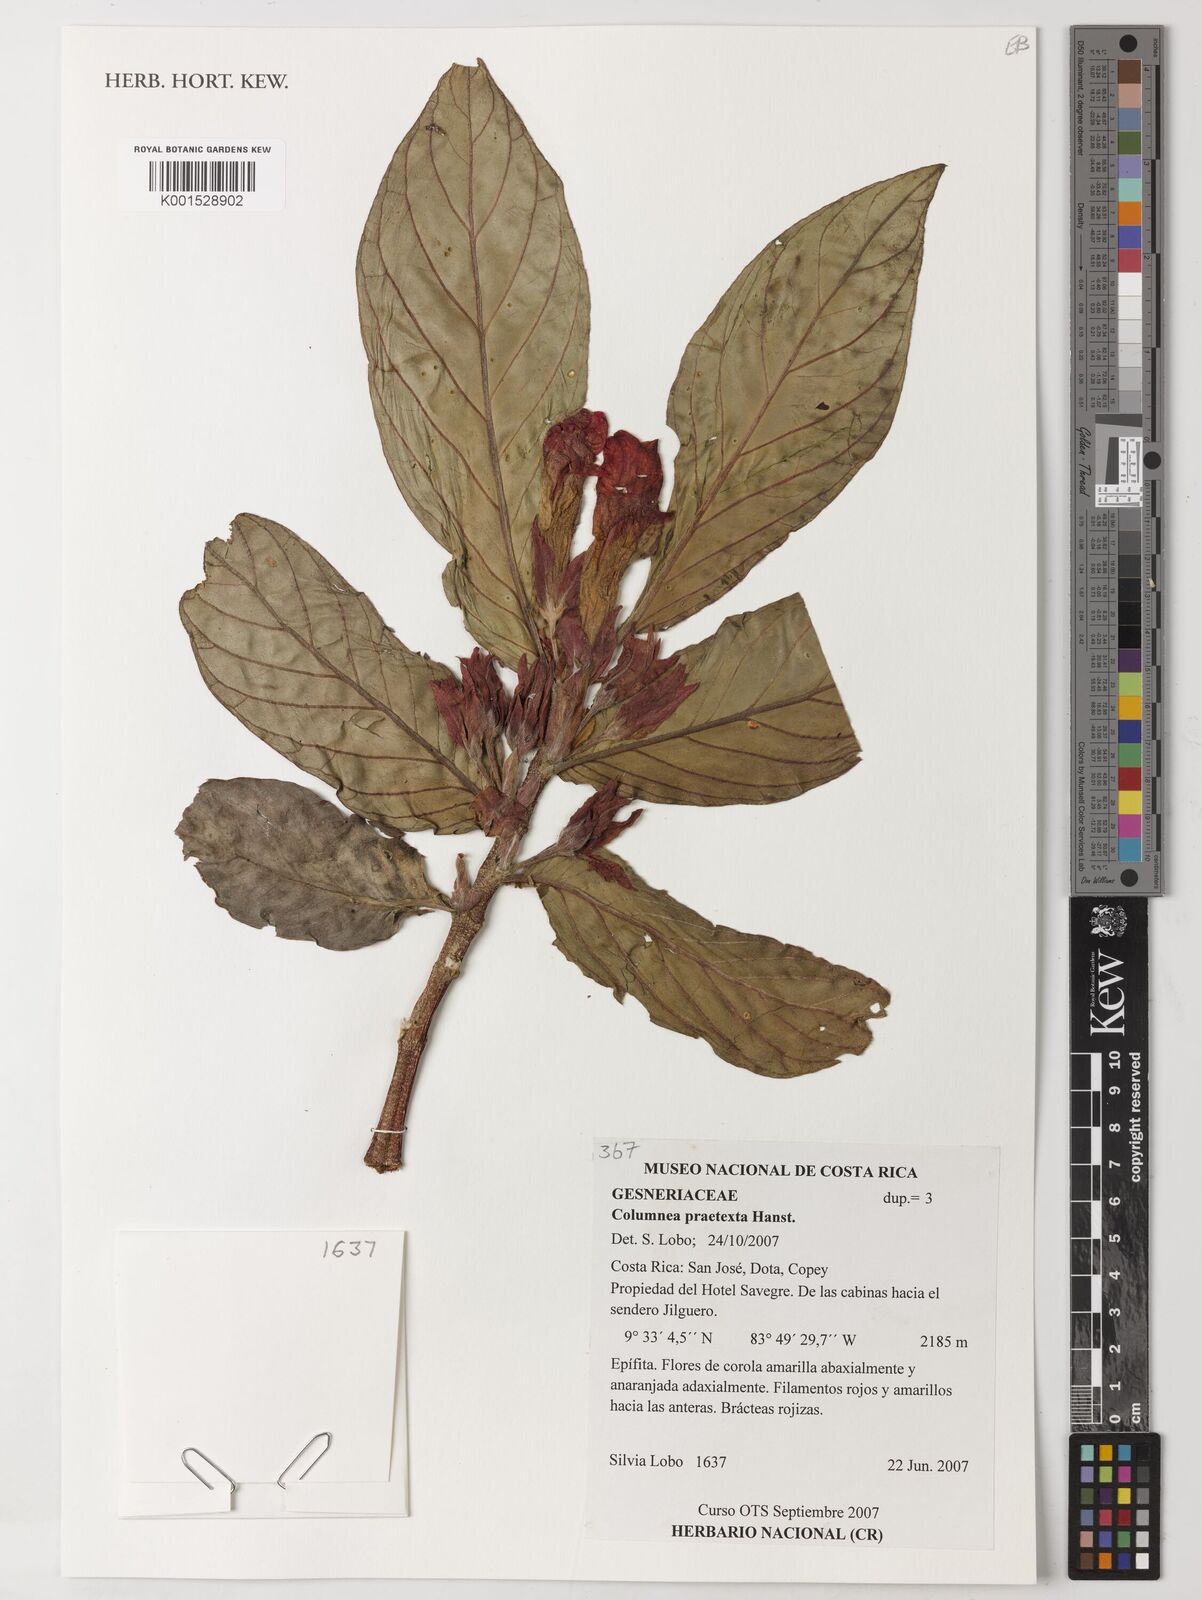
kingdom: Plantae
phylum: Tracheophyta
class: Magnoliopsida
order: Lamiales
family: Gesneriaceae
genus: Columnea
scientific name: Columnea praetexta
